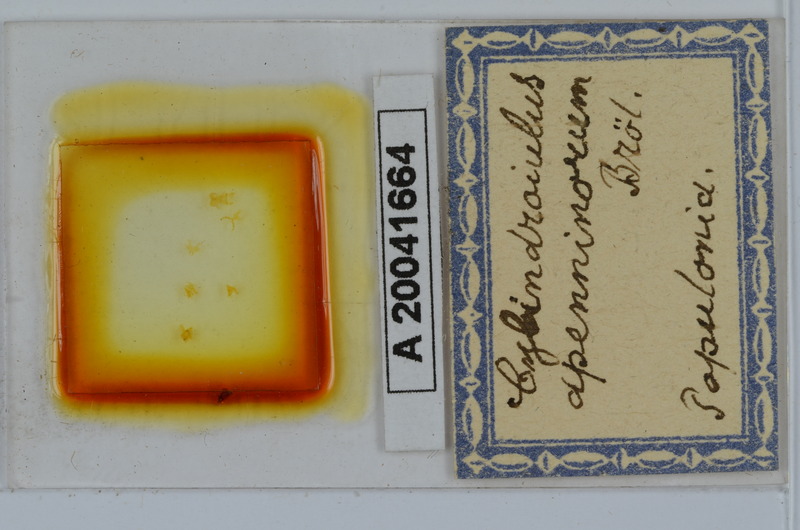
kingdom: Animalia
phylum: Arthropoda
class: Diplopoda
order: Julida
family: Julidae
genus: Cylindroiulus
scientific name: Cylindroiulus apenninorum
